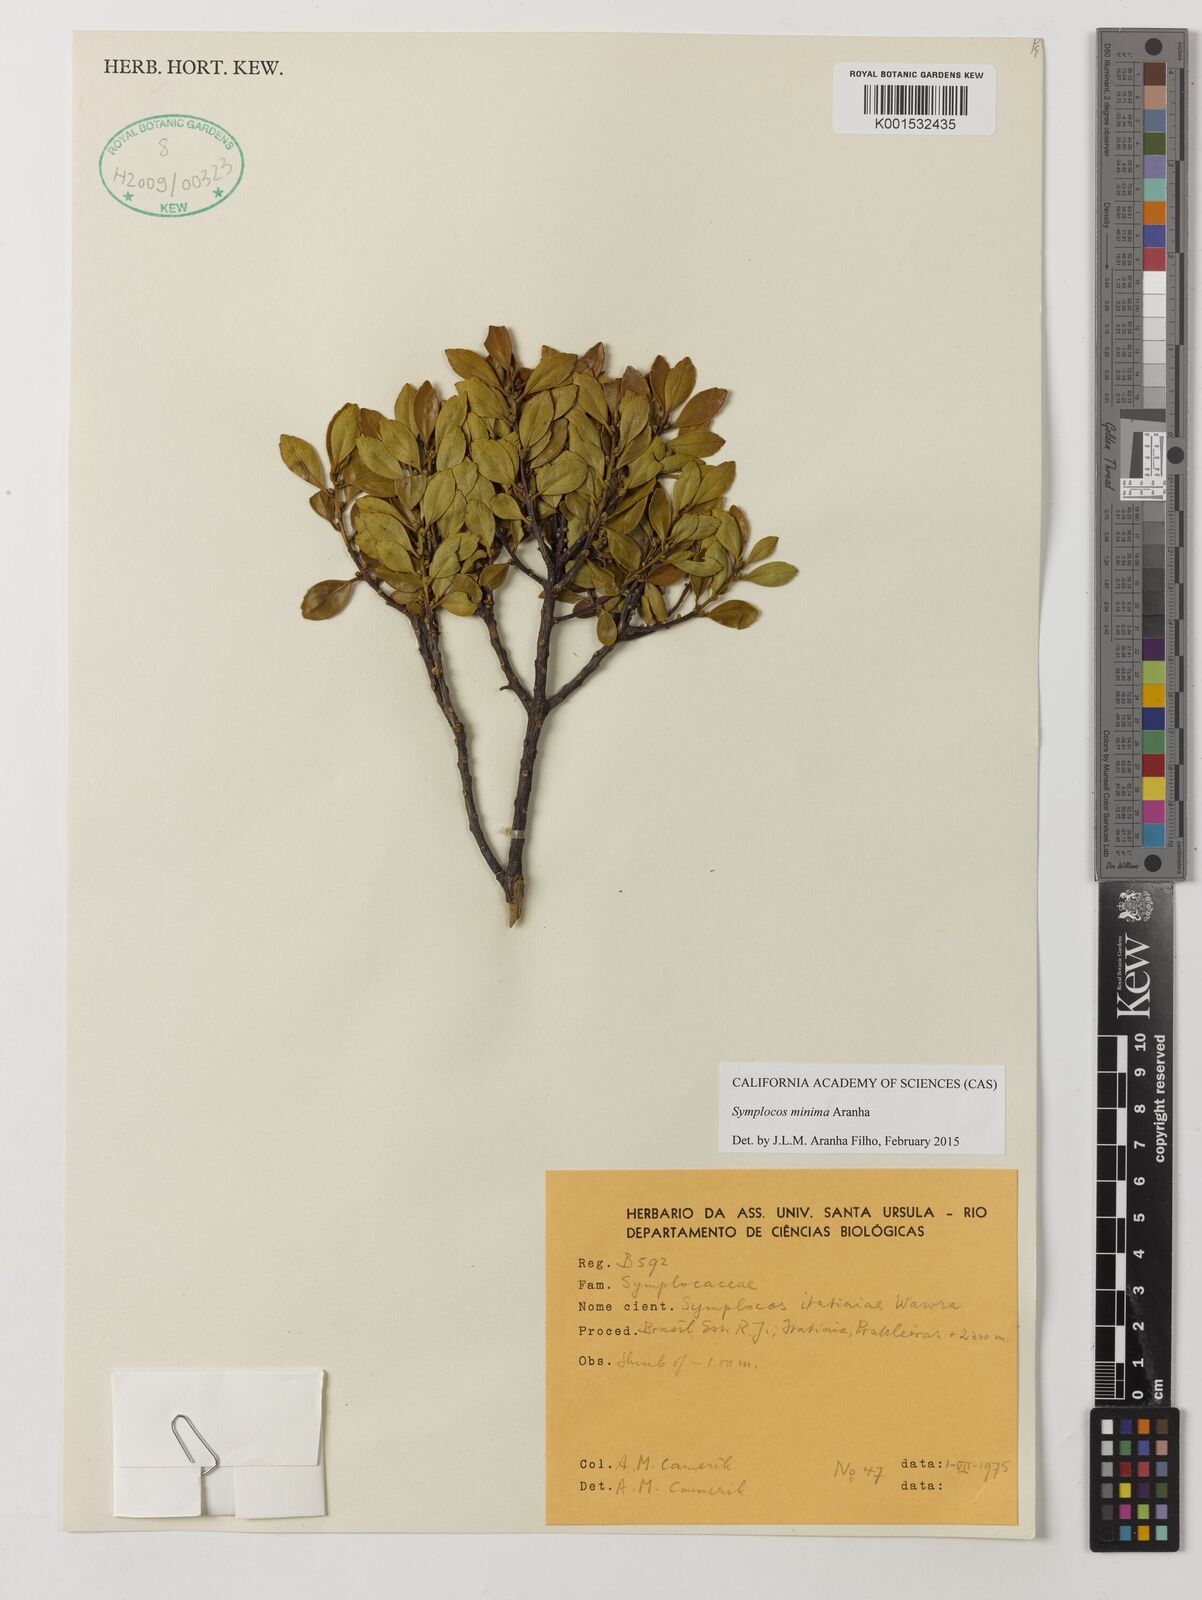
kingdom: Plantae
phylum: Tracheophyta
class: Magnoliopsida
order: Ericales
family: Symplocaceae
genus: Symplocos
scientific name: Symplocos minima
